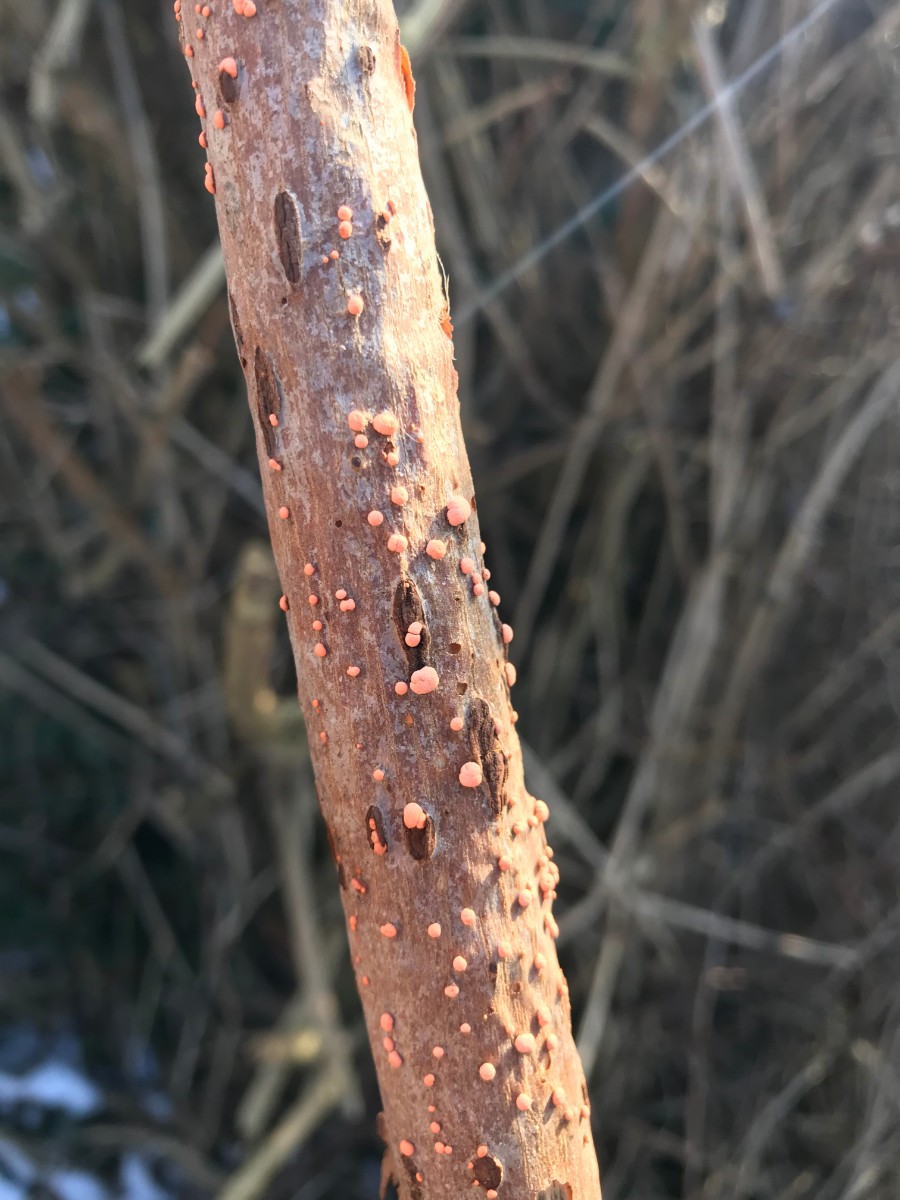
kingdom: Fungi
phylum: Ascomycota
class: Sordariomycetes
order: Hypocreales
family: Nectriaceae
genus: Nectria
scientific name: Nectria cinnabarina
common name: almindelig cinnobersvamp
